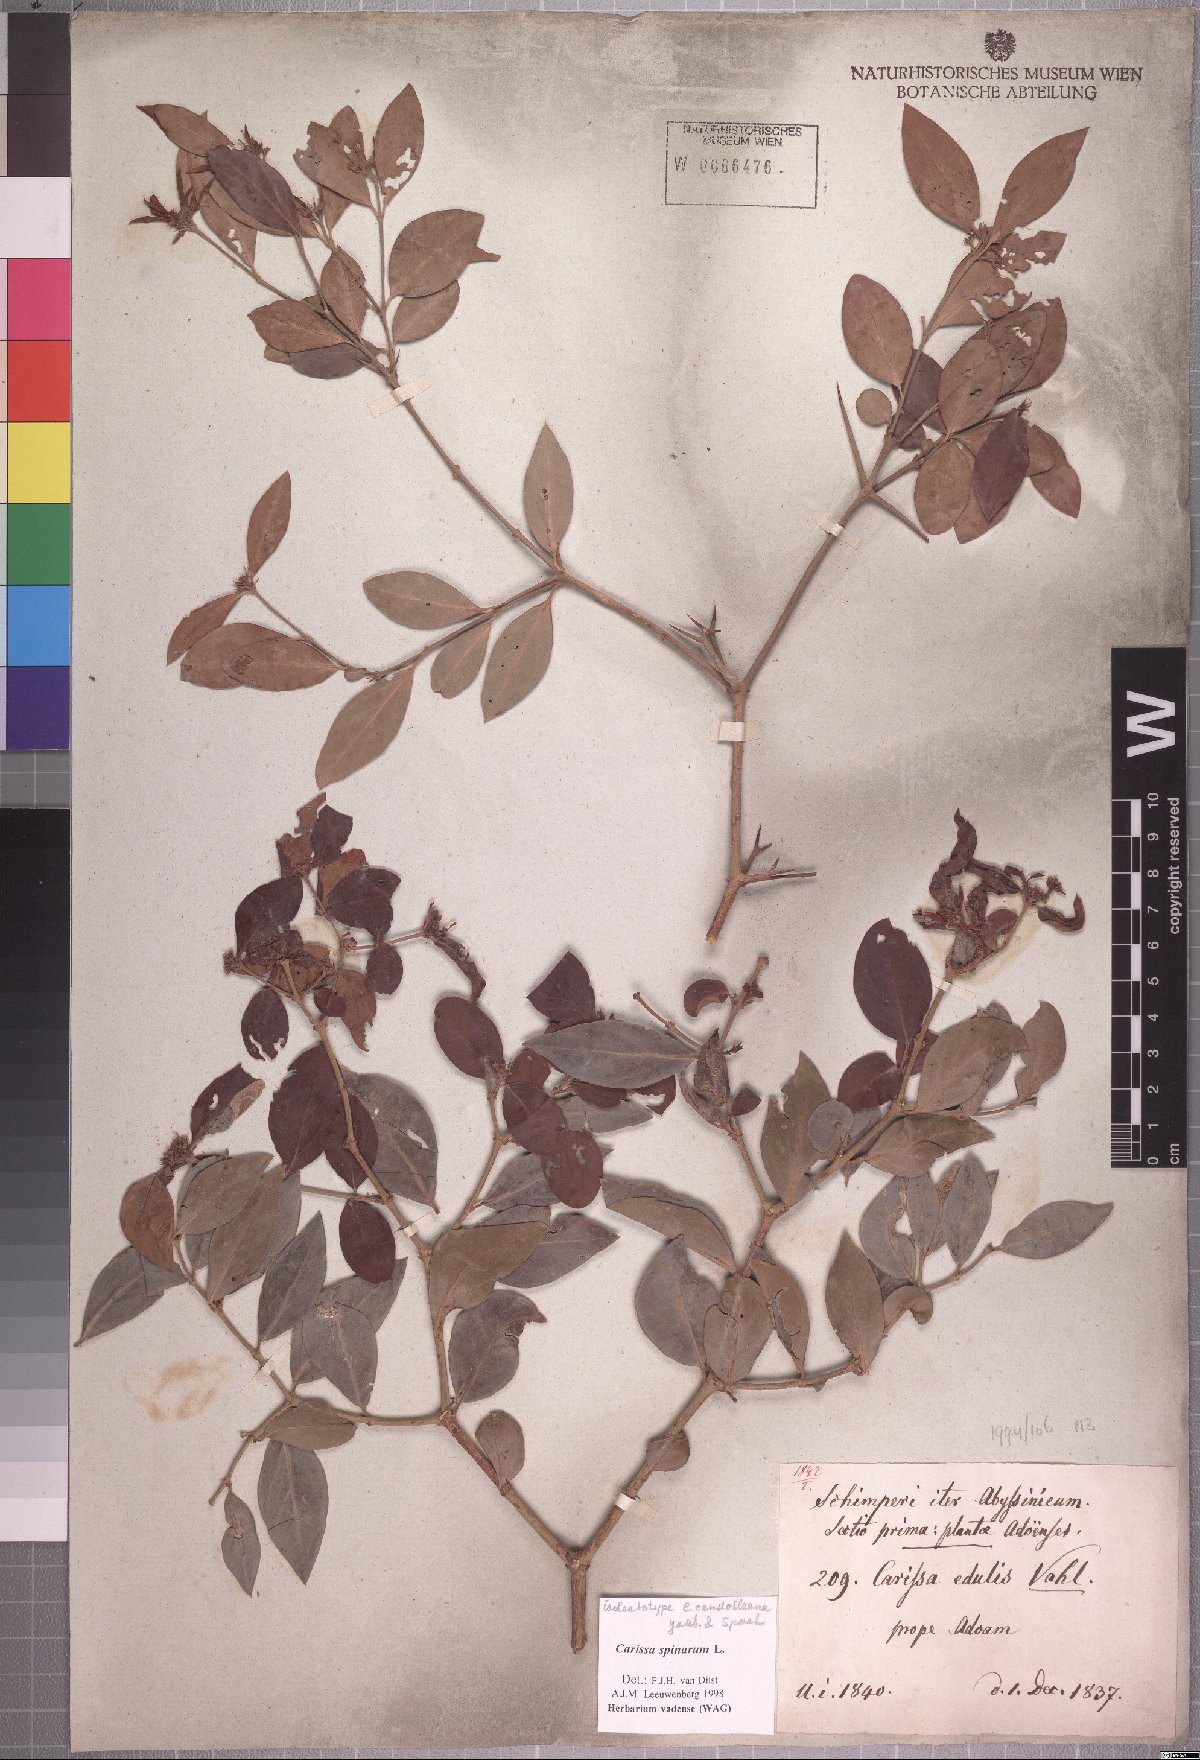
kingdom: Plantae
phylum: Tracheophyta
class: Magnoliopsida
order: Gentianales
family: Apocynaceae
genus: Carissa
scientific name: Carissa spinarum
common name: Egyptian carissa
